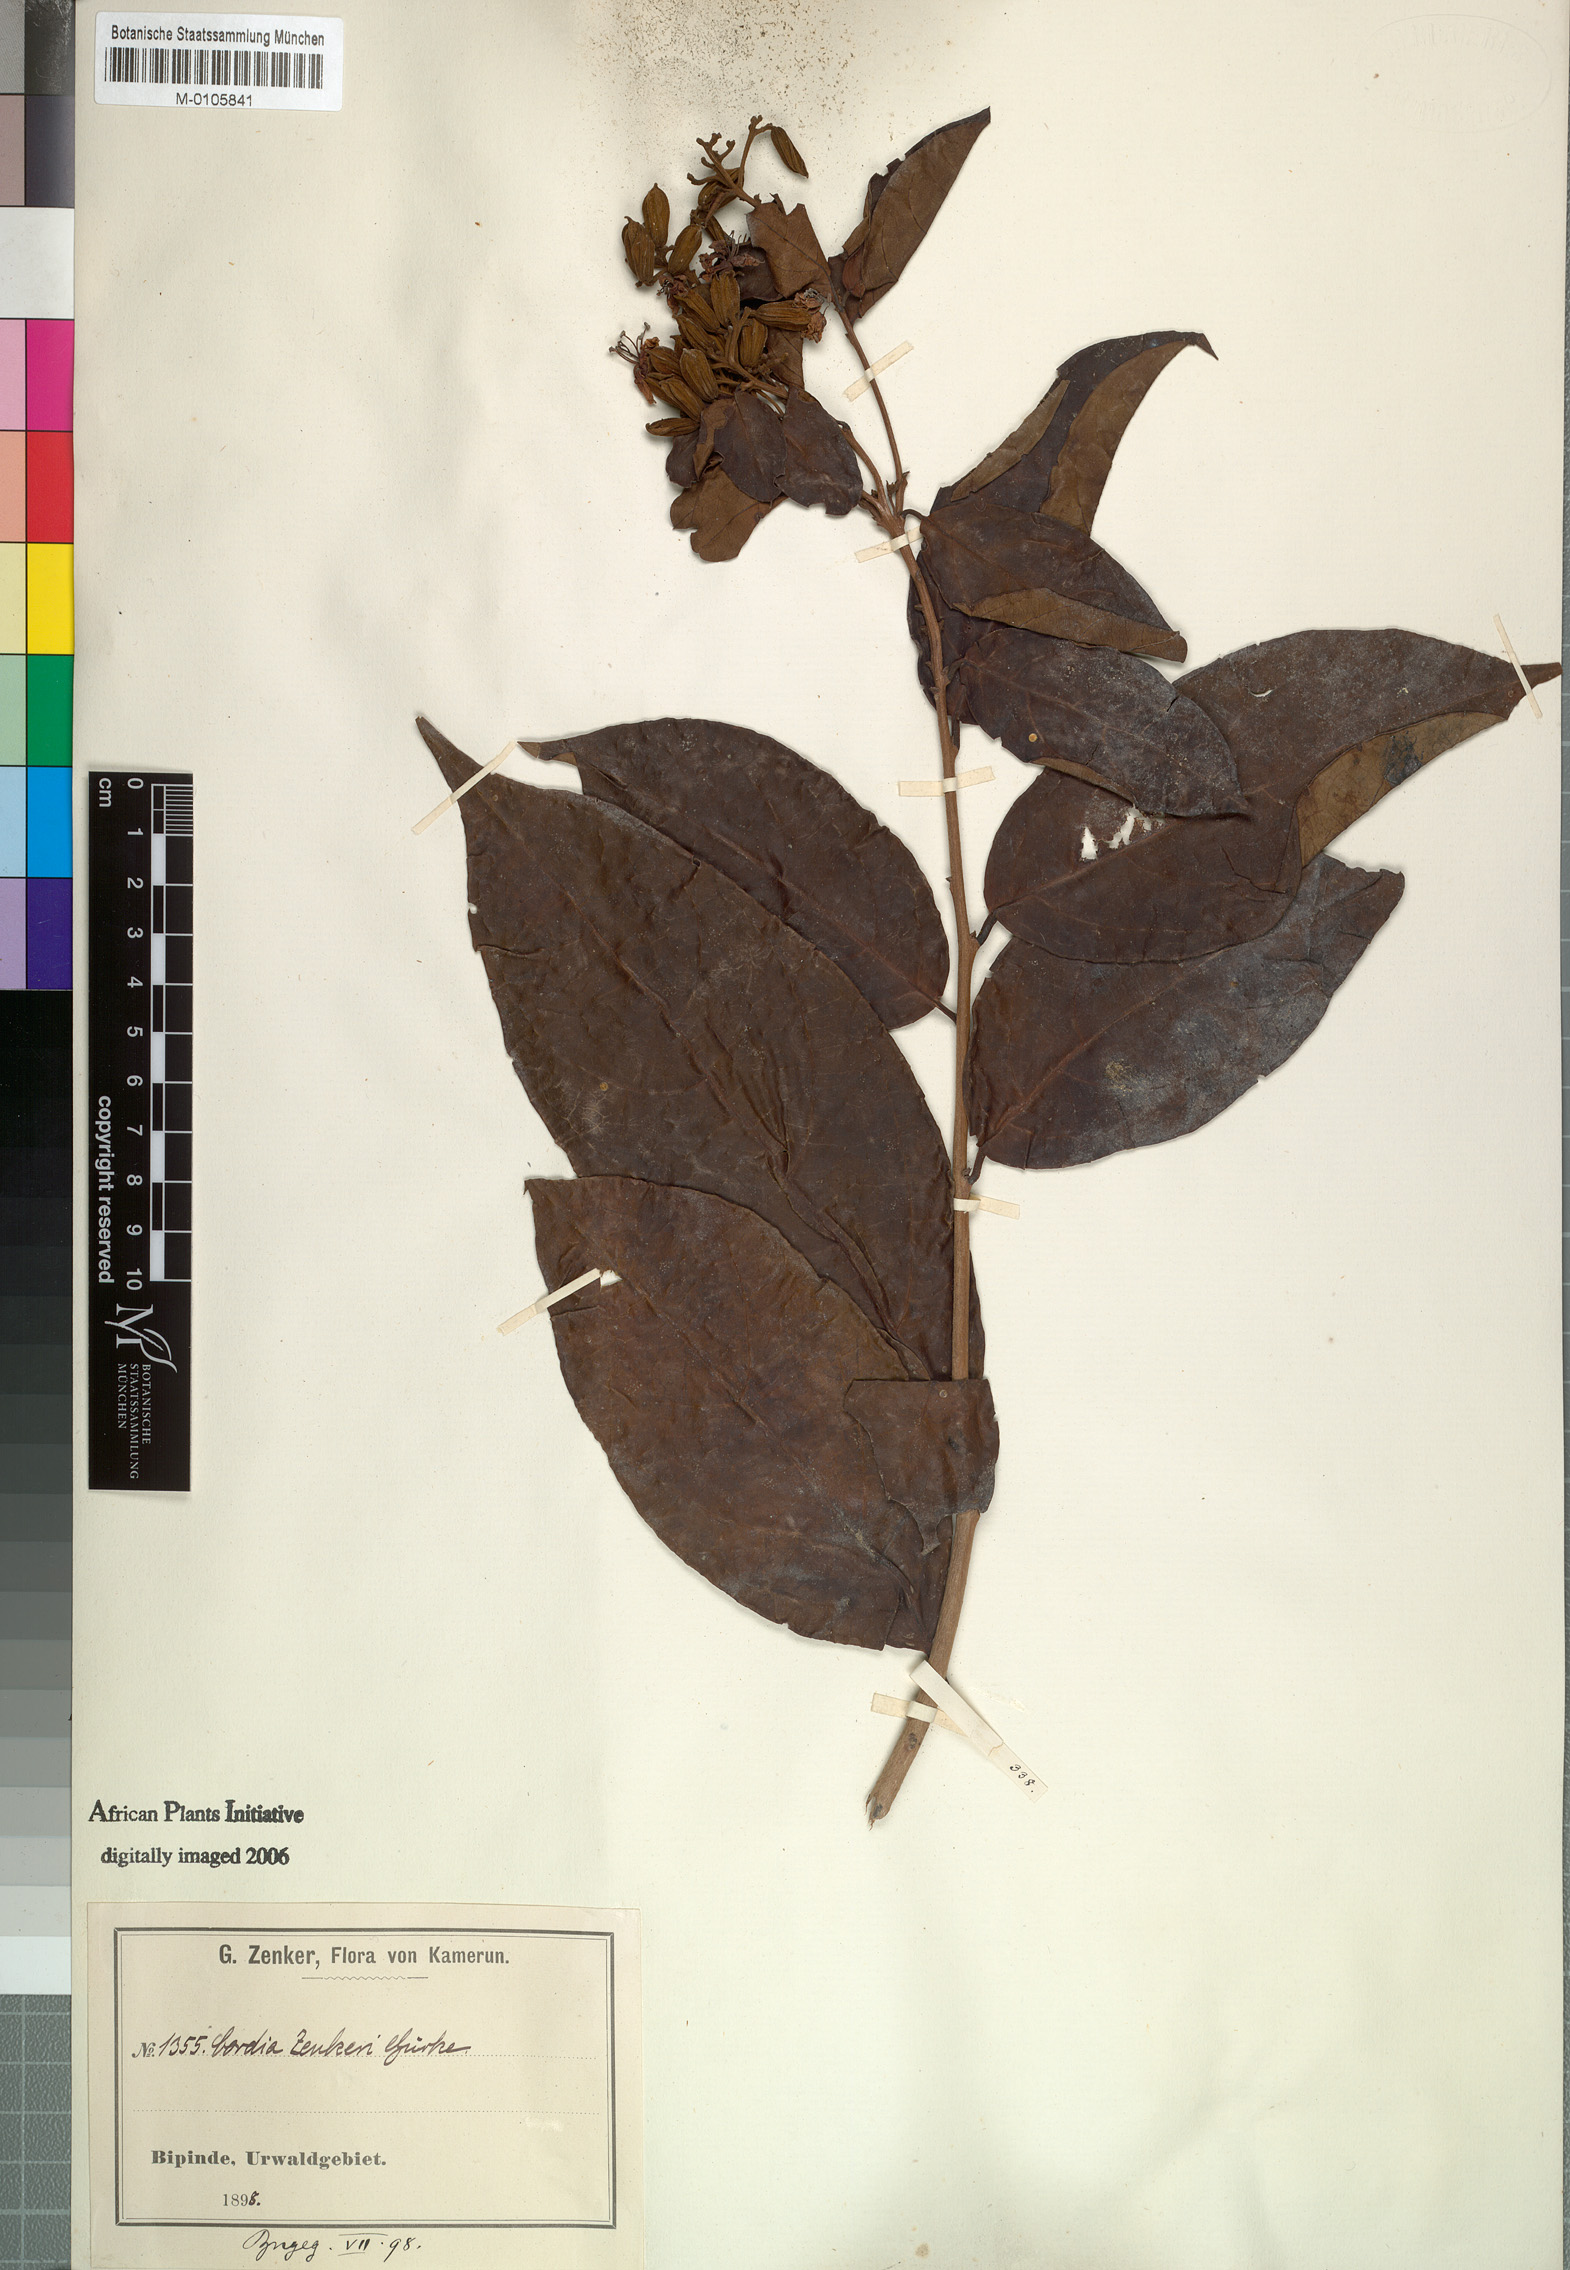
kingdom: Plantae
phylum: Tracheophyta
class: Magnoliopsida
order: Boraginales
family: Cordiaceae
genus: Cordia
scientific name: Cordia aurantiaca
